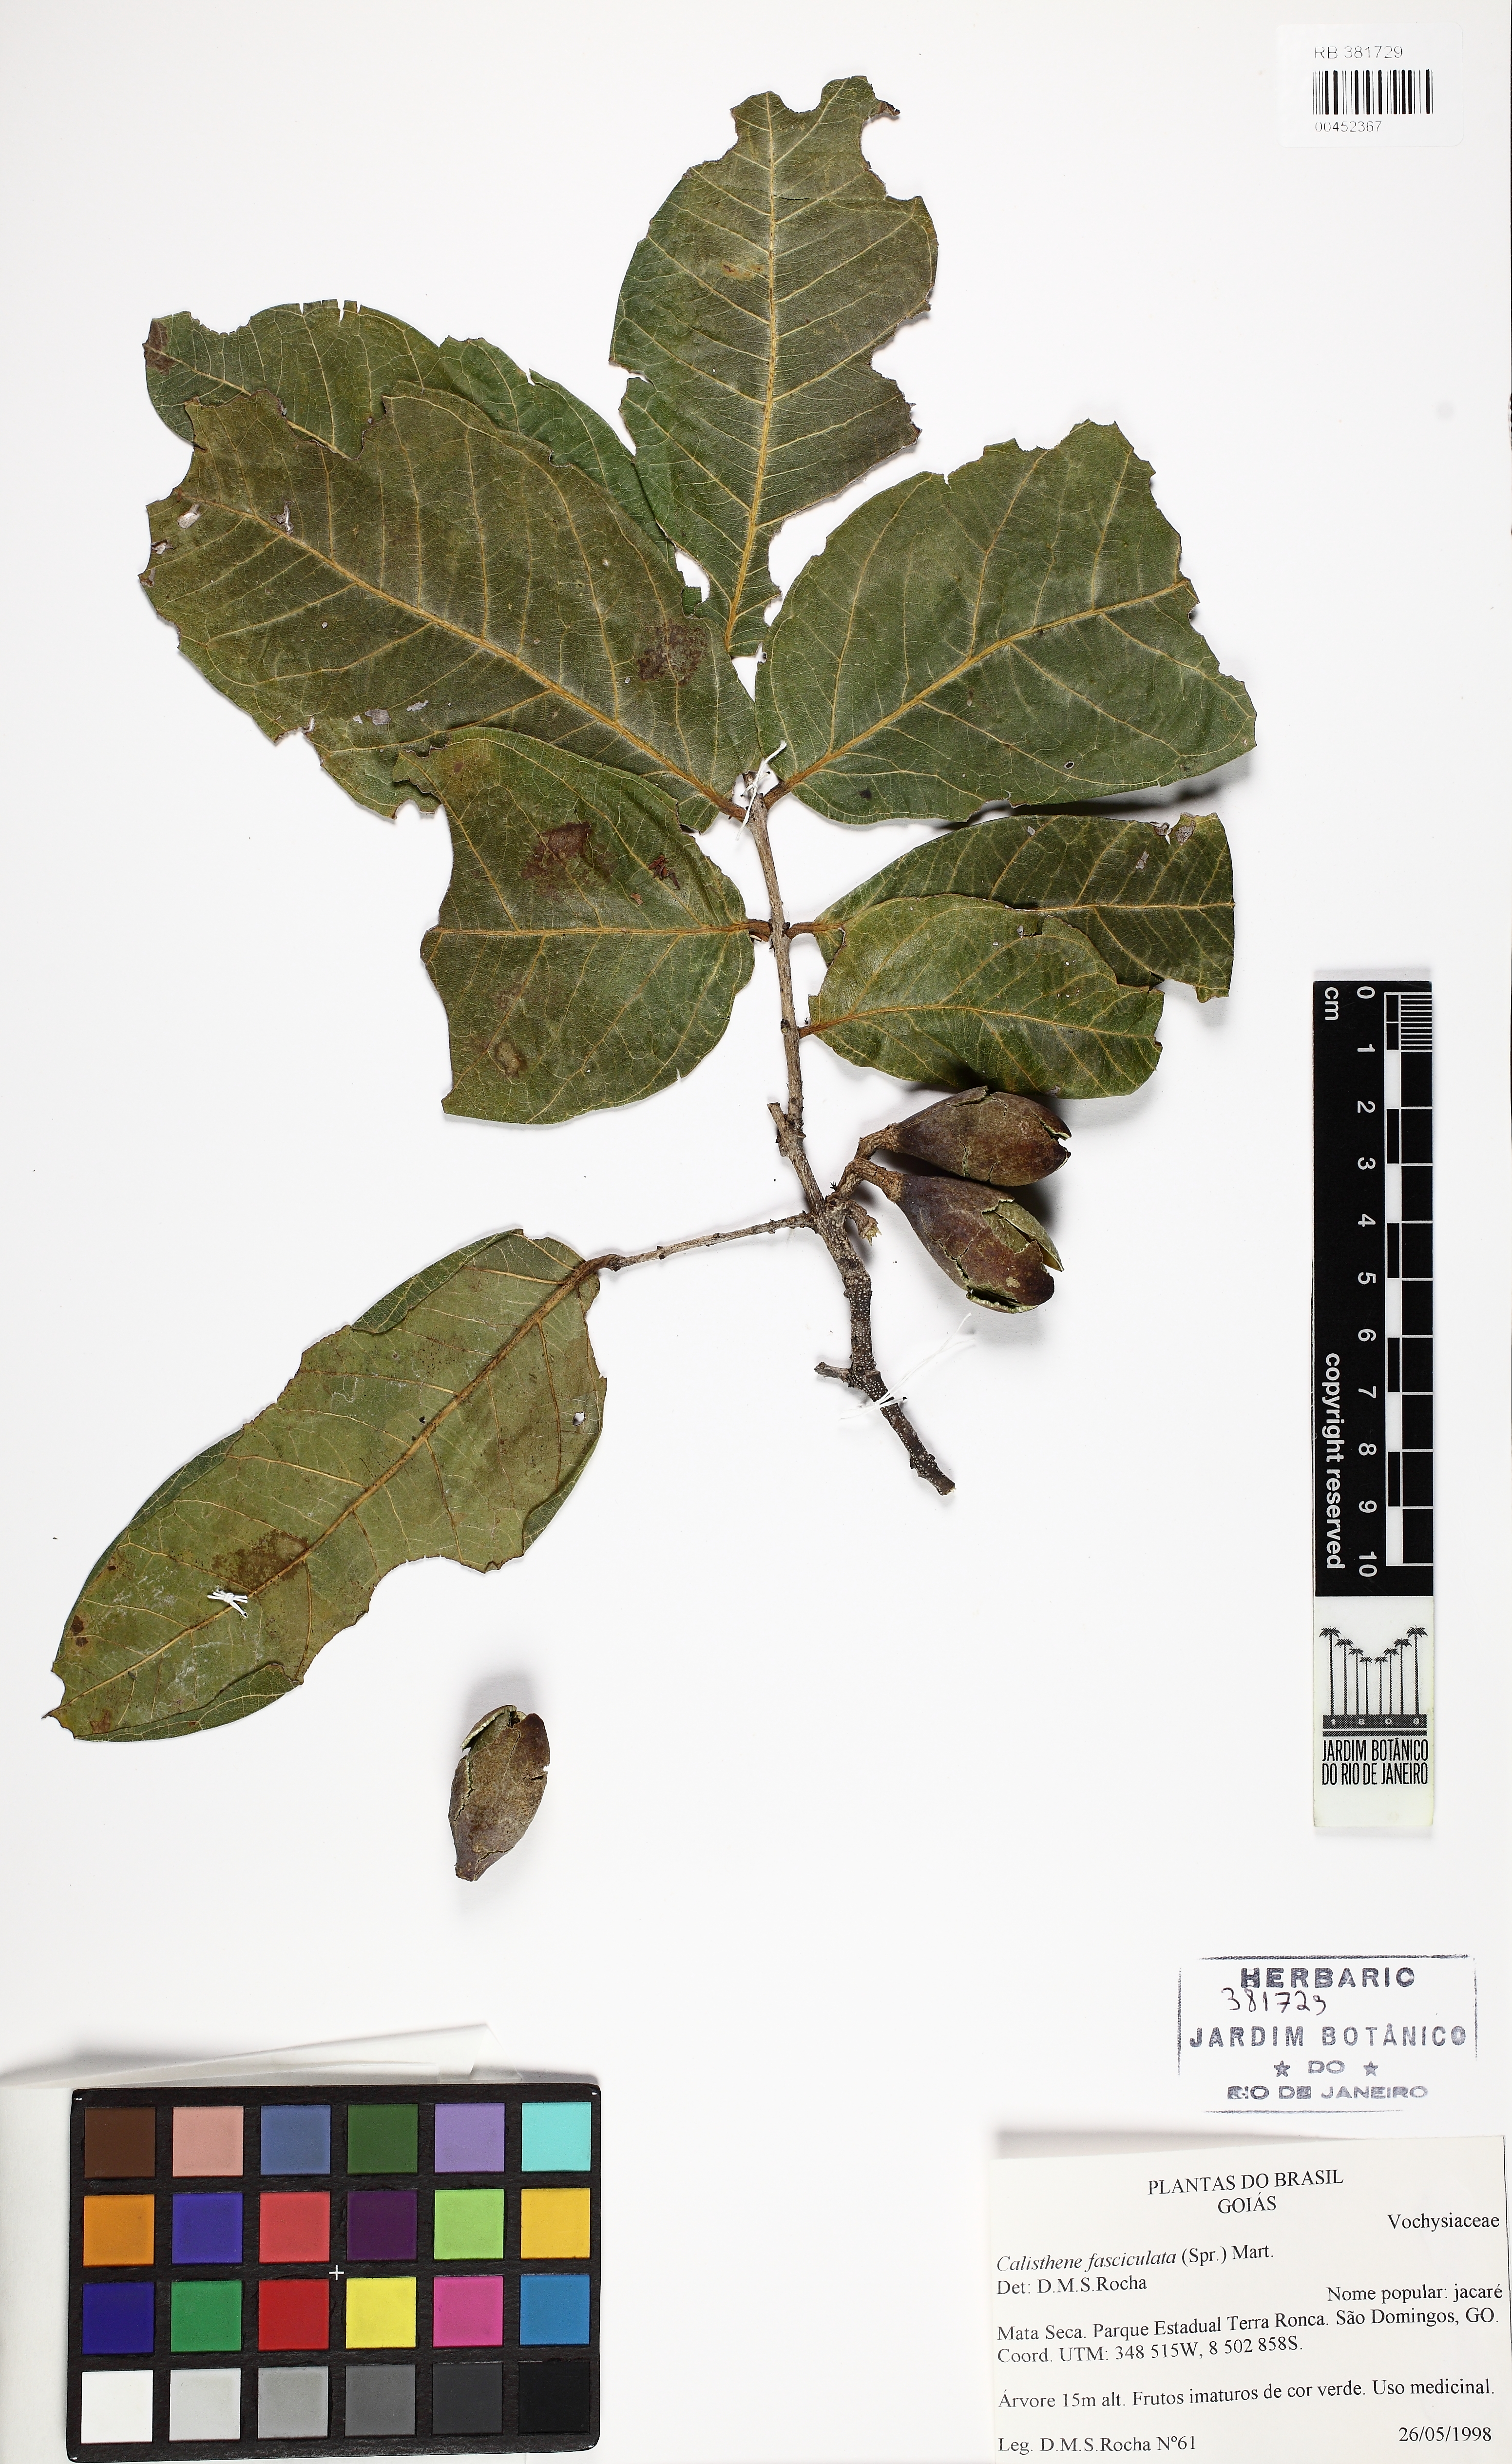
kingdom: Plantae
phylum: Tracheophyta
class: Magnoliopsida
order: Myrtales
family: Vochysiaceae
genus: Callisthene
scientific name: Callisthene fasciculata
